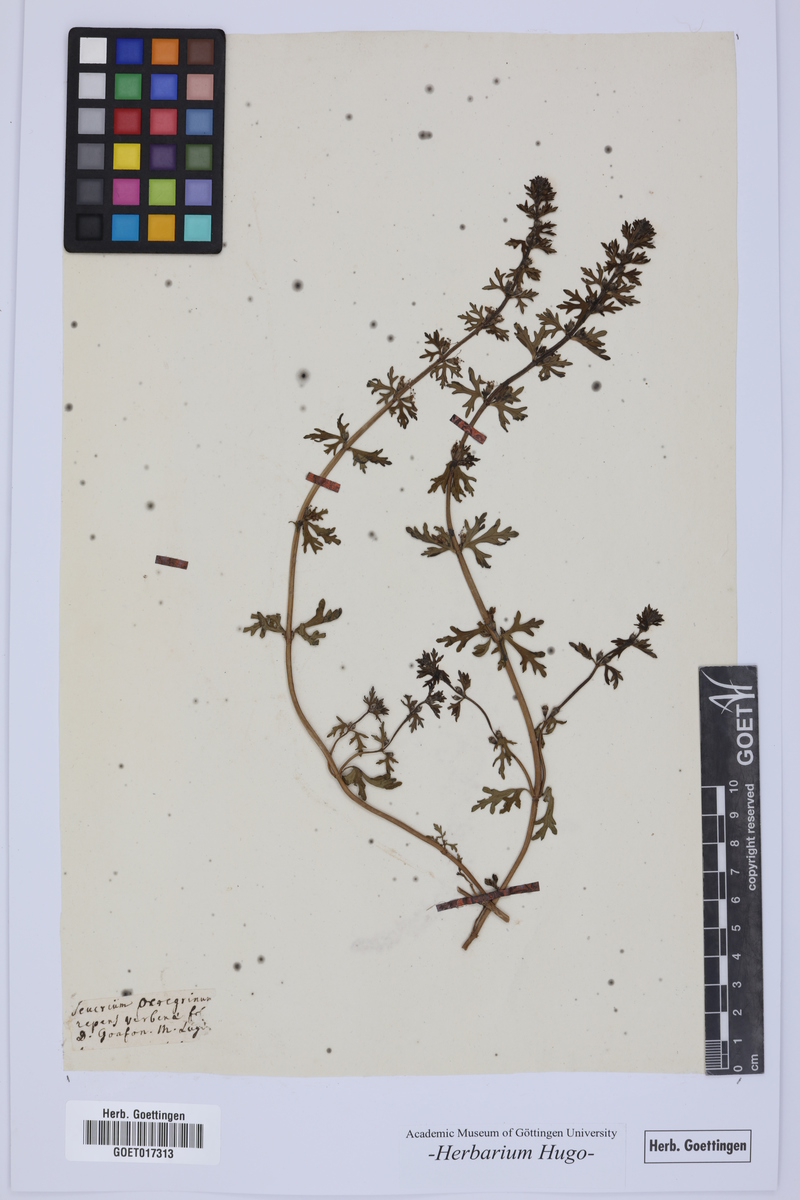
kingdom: Plantae
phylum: Tracheophyta
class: Magnoliopsida
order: Lamiales
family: Lamiaceae
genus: Teucrium
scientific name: Teucrium
